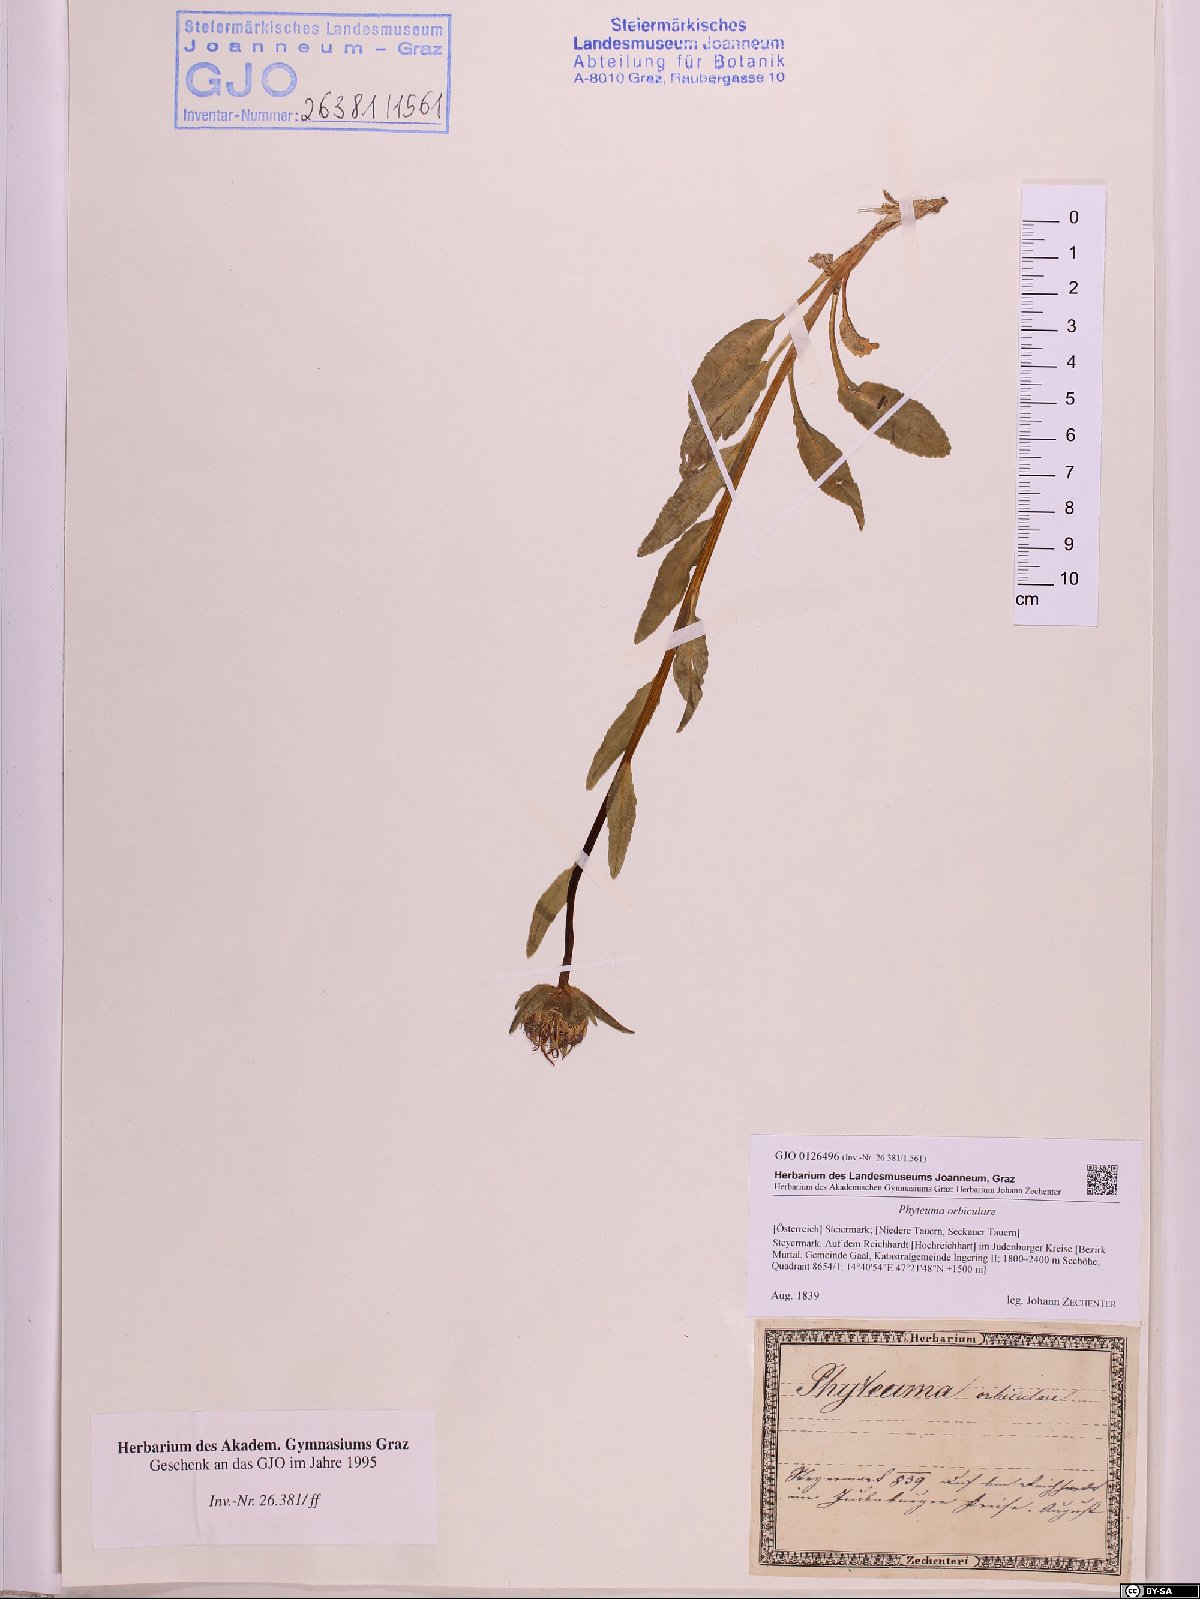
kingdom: Plantae
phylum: Tracheophyta
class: Magnoliopsida
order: Asterales
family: Campanulaceae
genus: Phyteuma
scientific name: Phyteuma orbiculare
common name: Round-headed rampion
